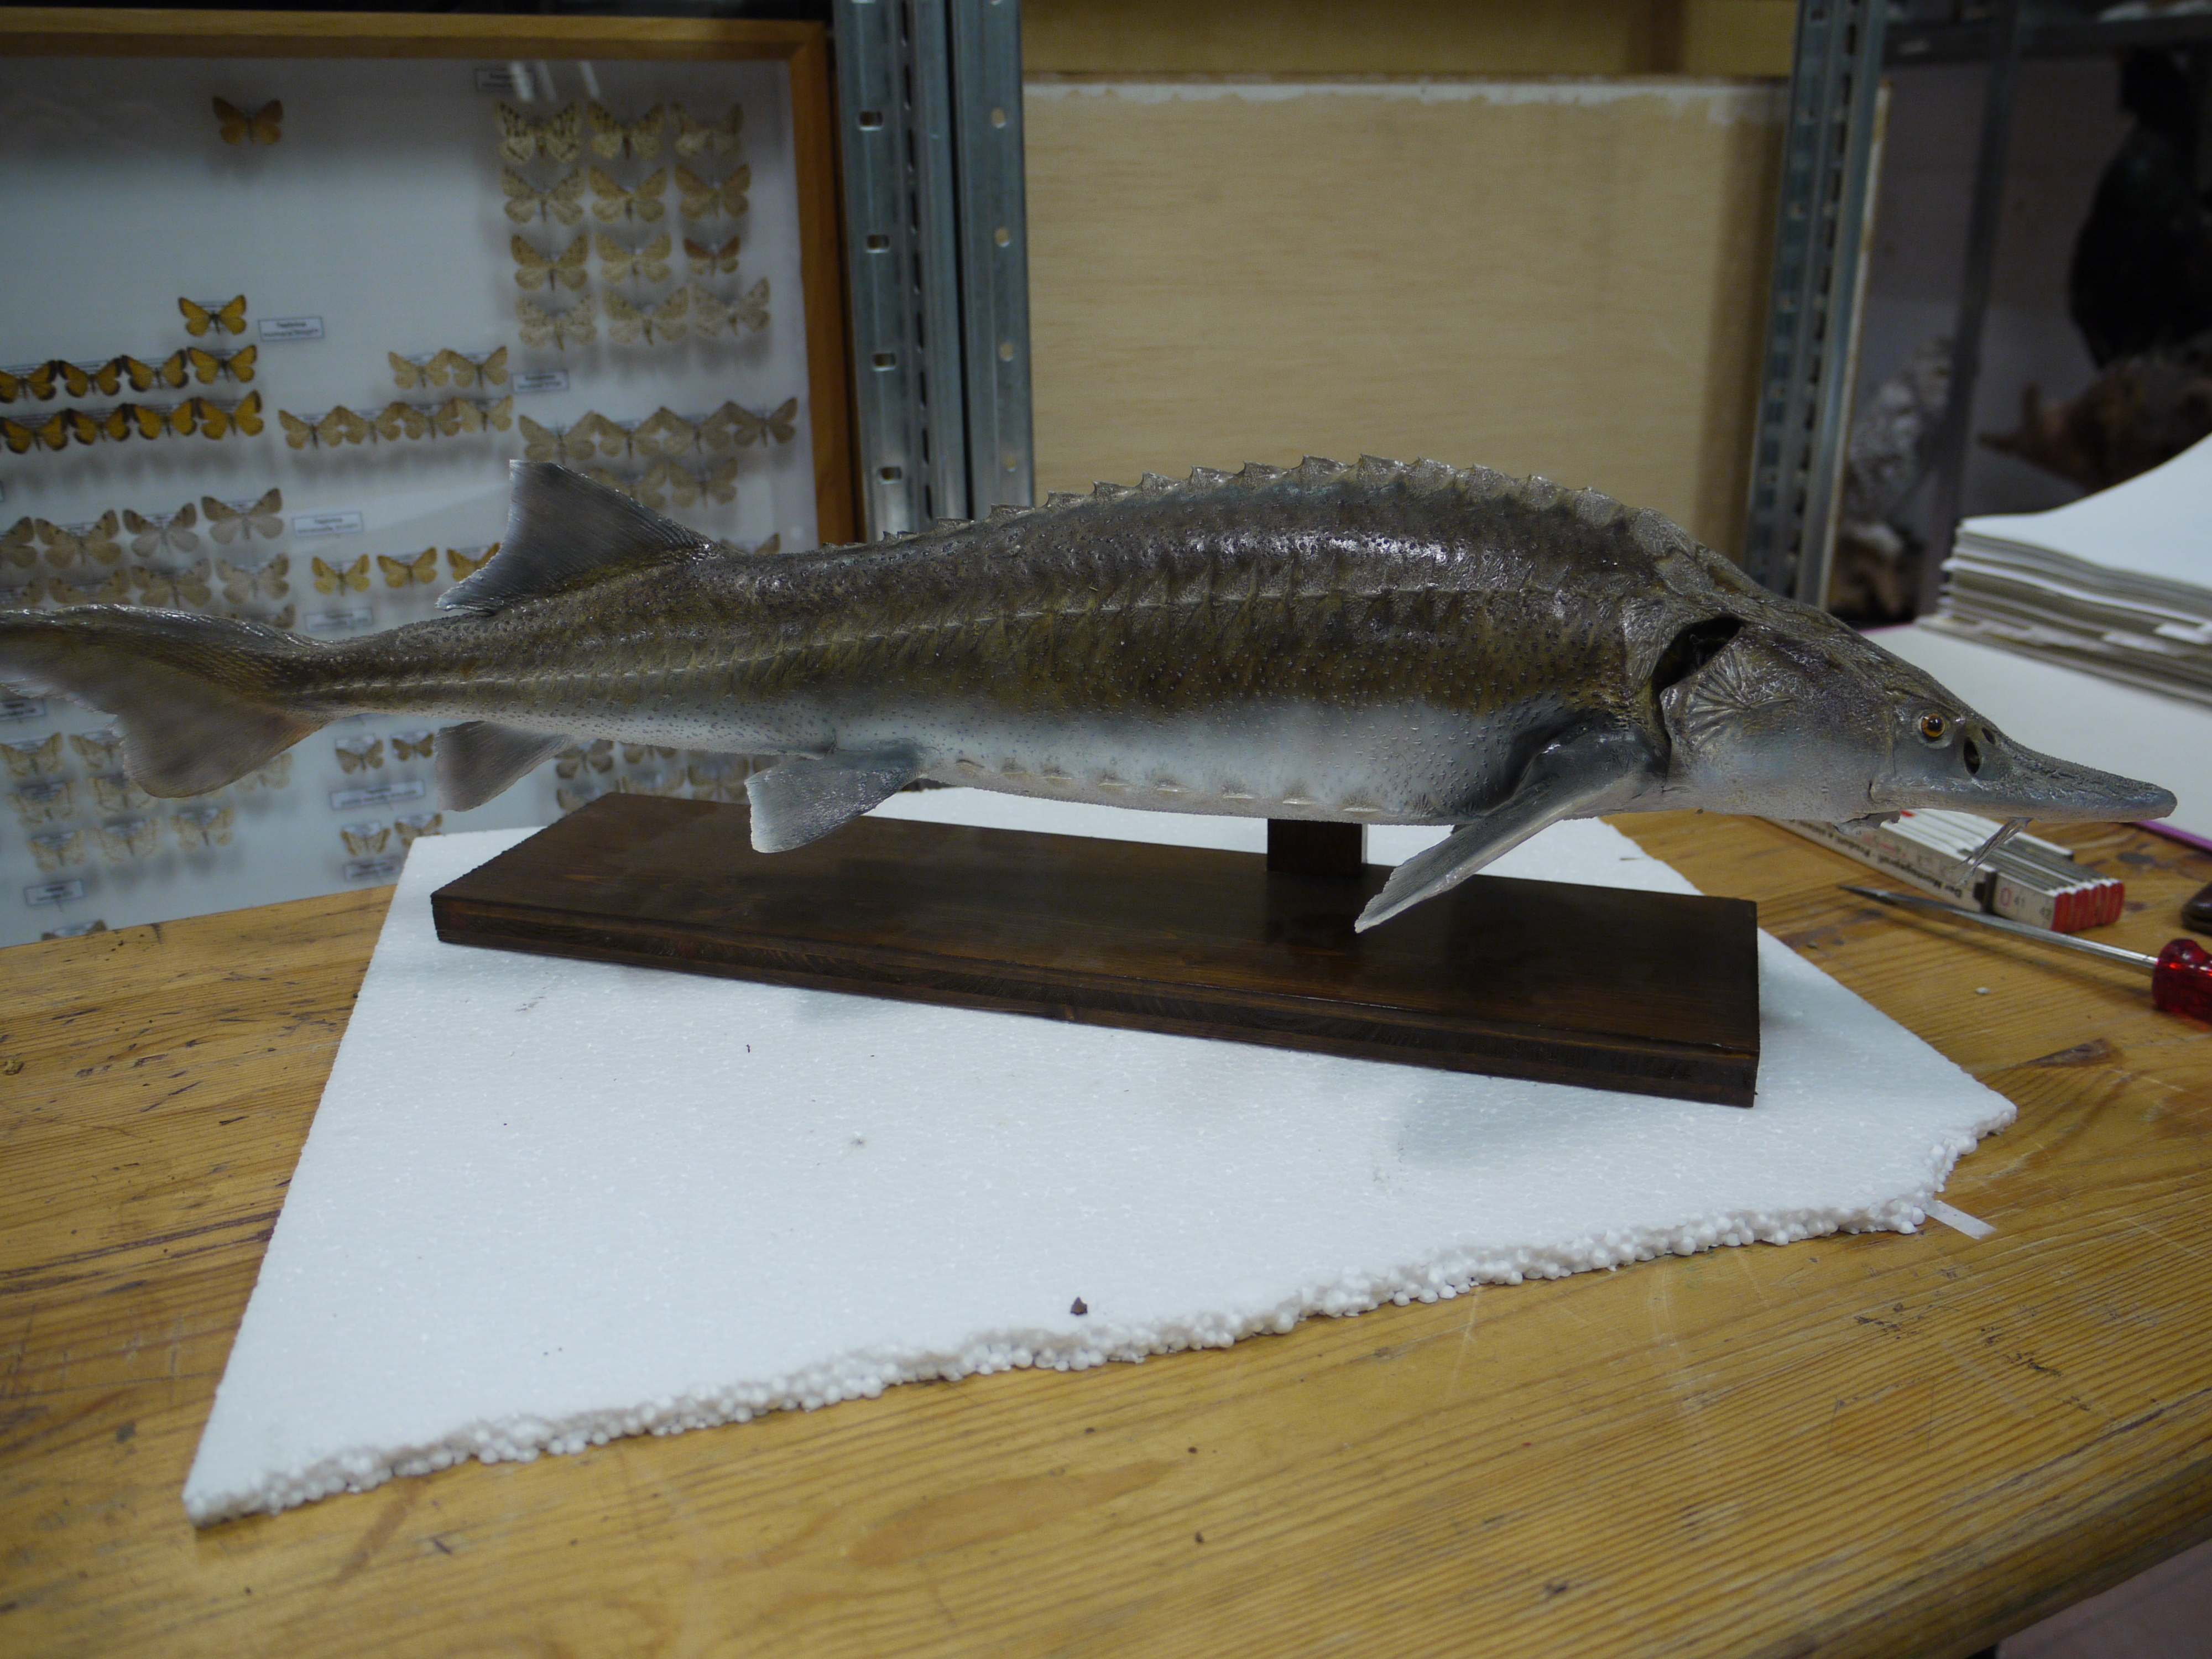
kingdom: Animalia
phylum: Chordata
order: Acipenseriformes
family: Acipenseridae
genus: Acipenser
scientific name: Acipenser sturio
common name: Sturgeon
